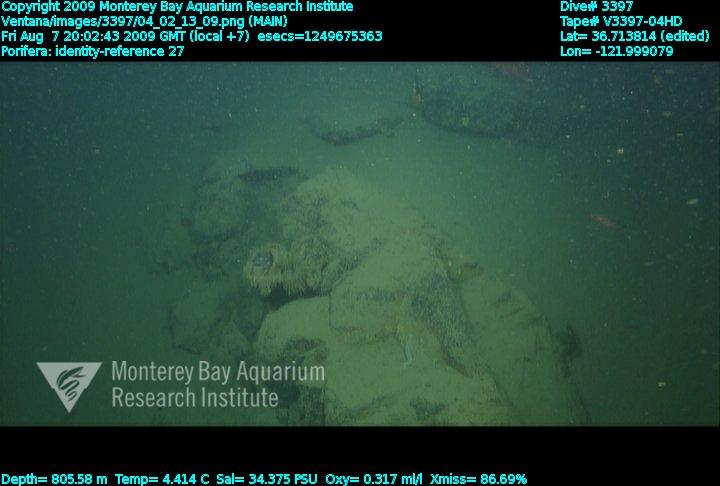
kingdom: Animalia
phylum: Porifera
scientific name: Porifera
